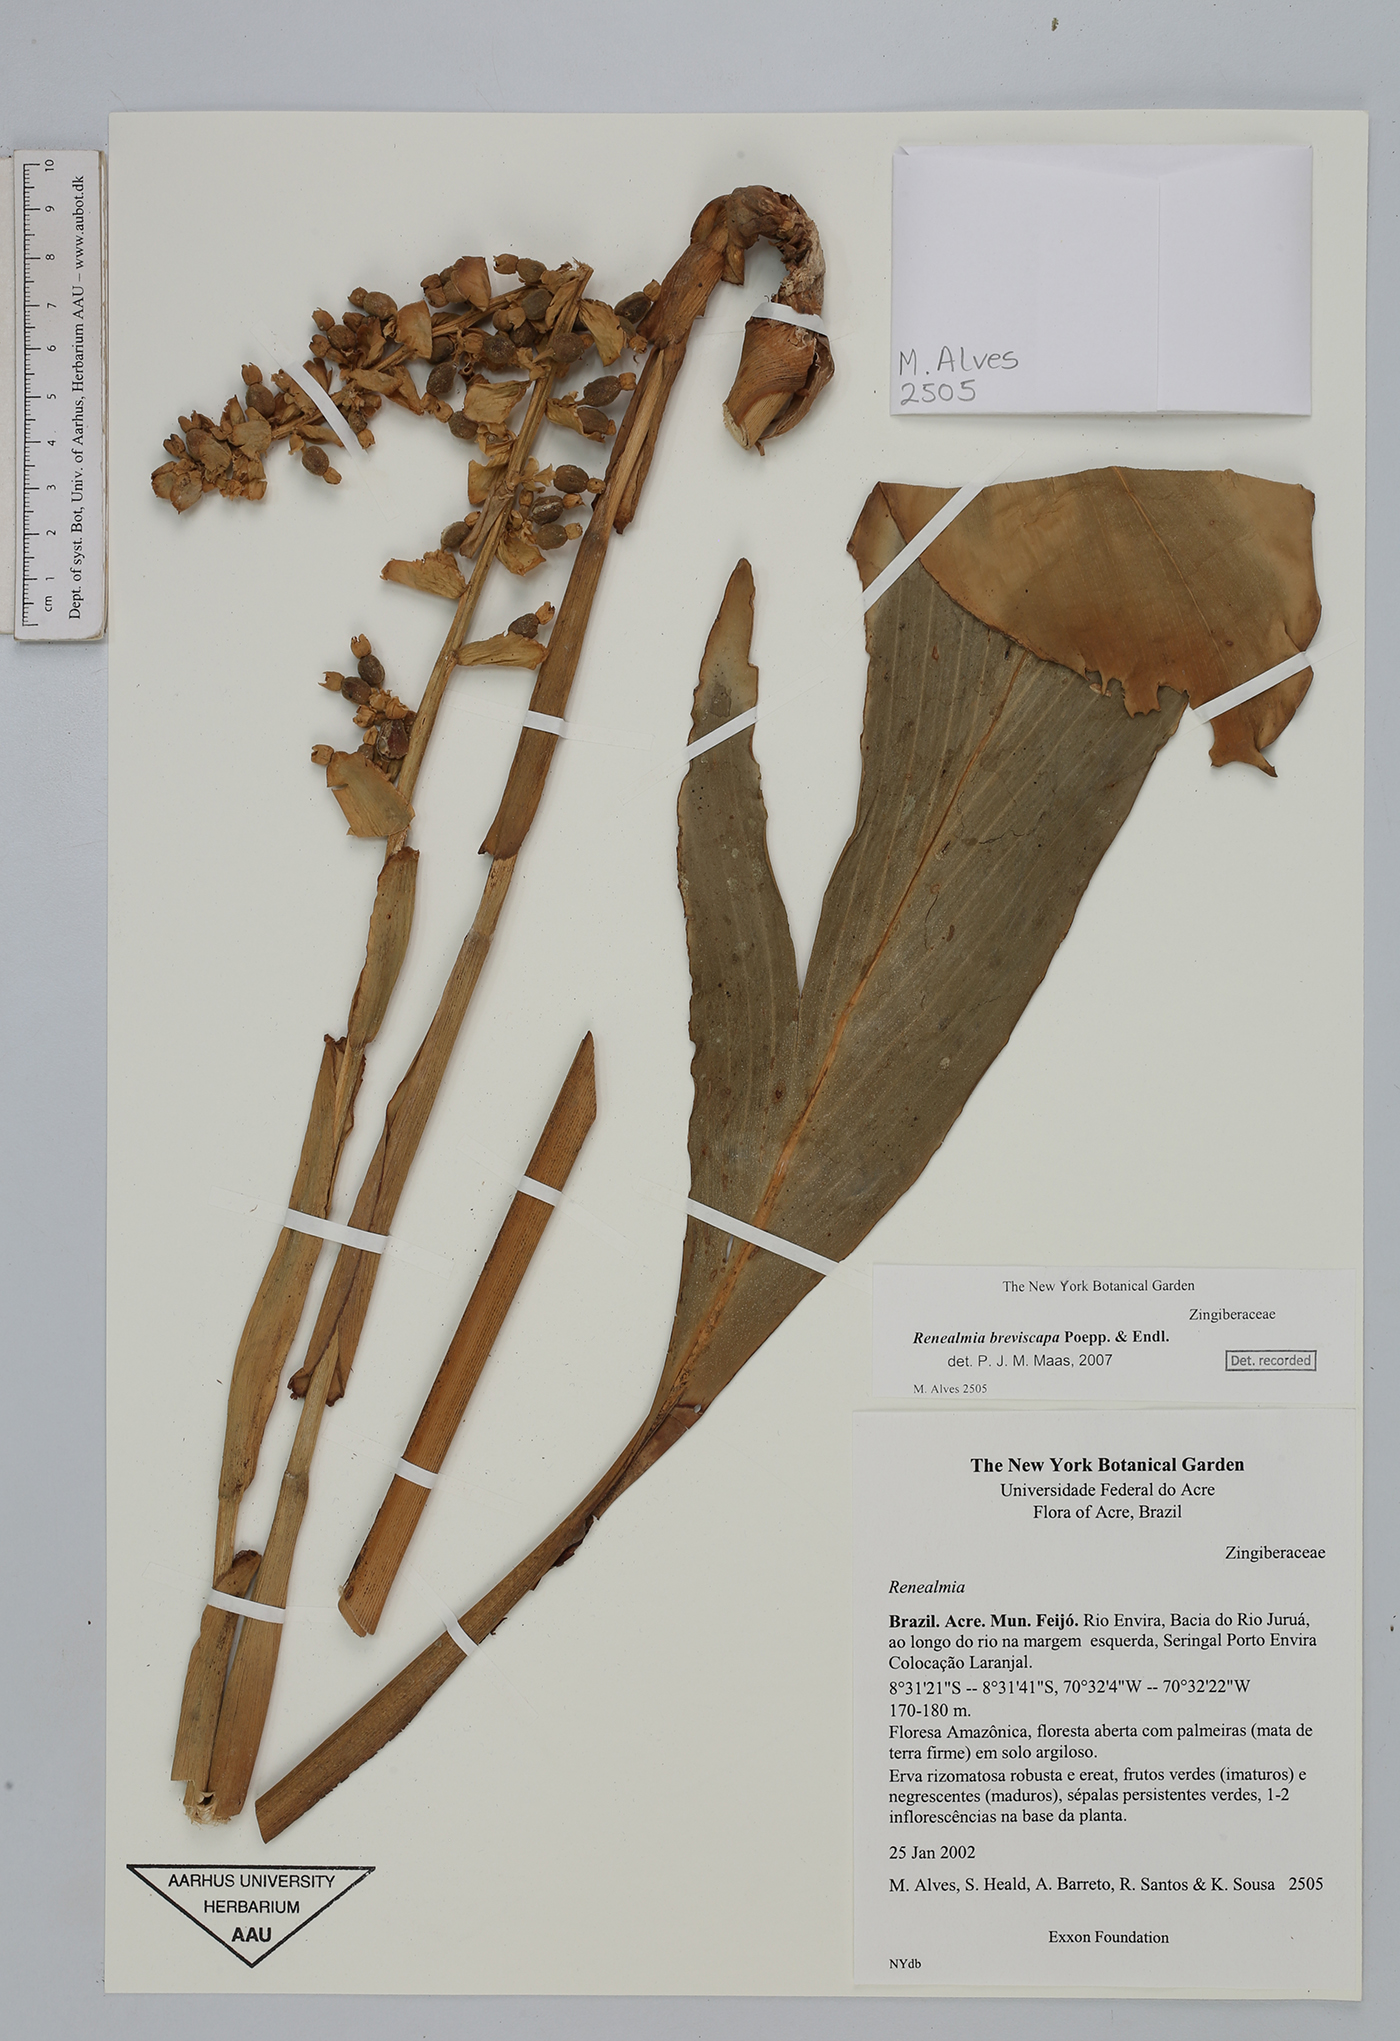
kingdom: Plantae
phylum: Tracheophyta
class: Liliopsida
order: Zingiberales
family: Zingiberaceae
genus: Renealmia
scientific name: Renealmia breviscapa
